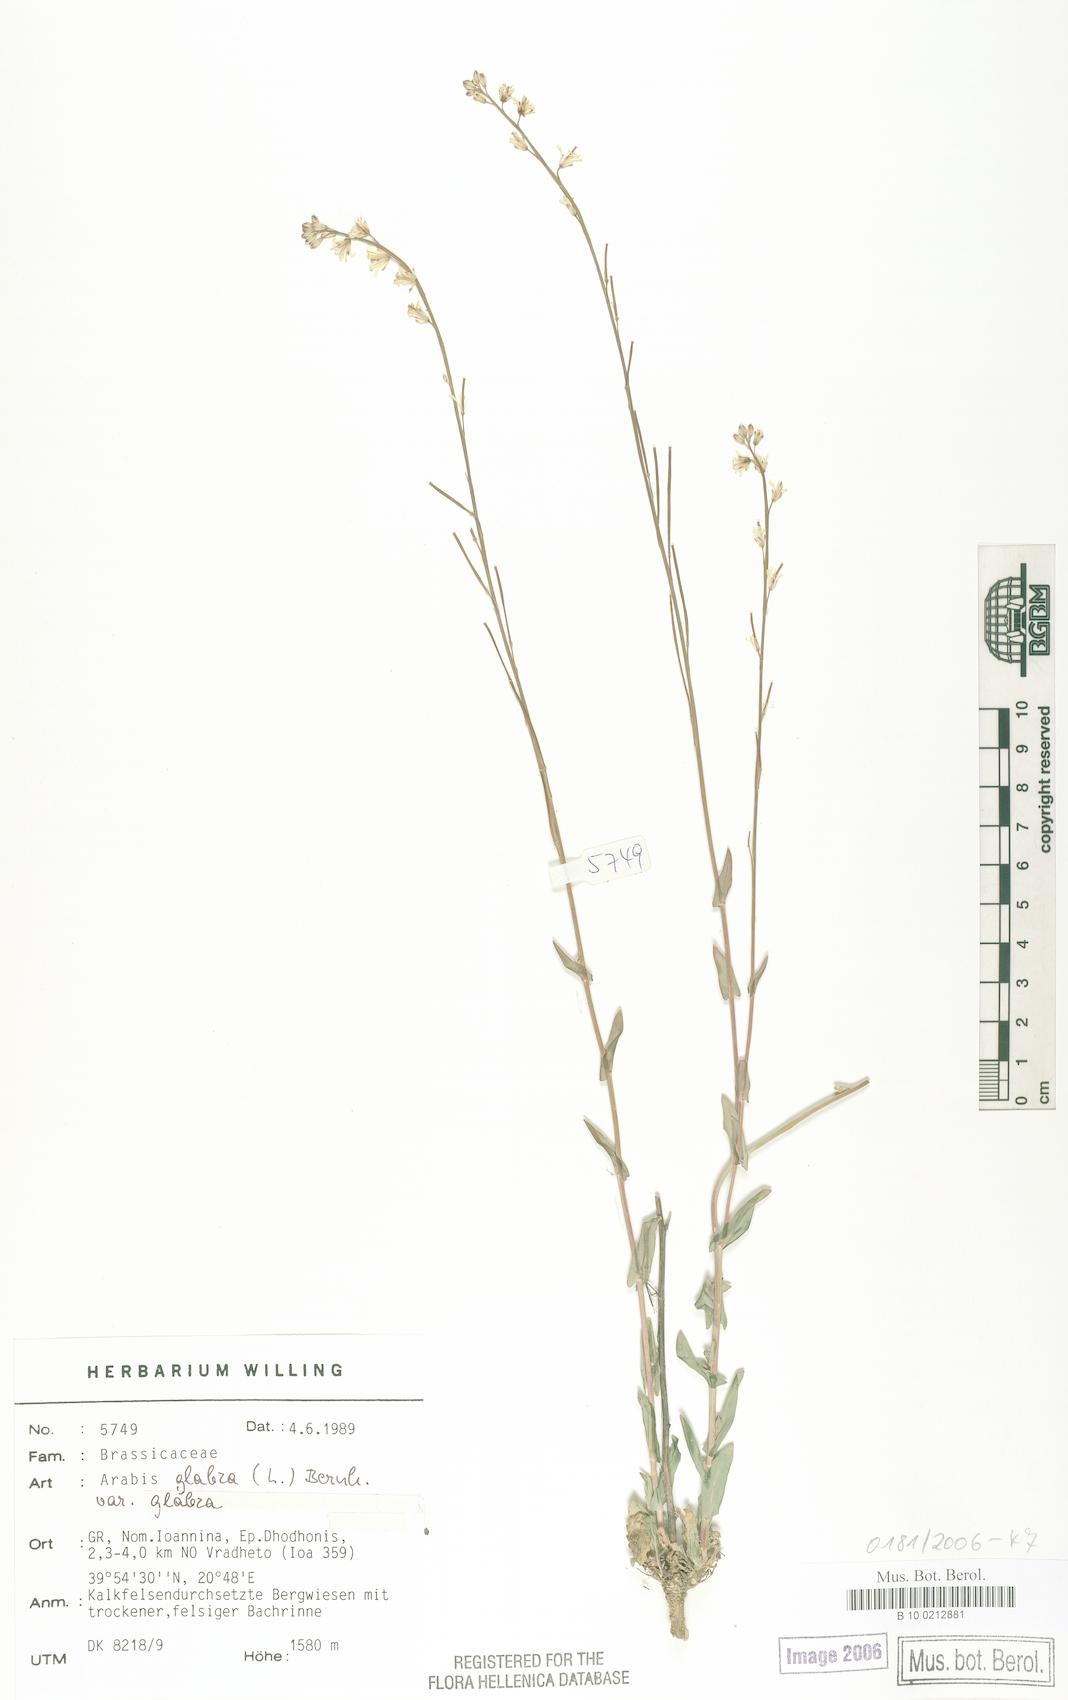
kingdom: Plantae
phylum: Tracheophyta
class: Magnoliopsida
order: Brassicales
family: Brassicaceae
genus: Turritis
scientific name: Turritis glabra
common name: Tower rockcress
